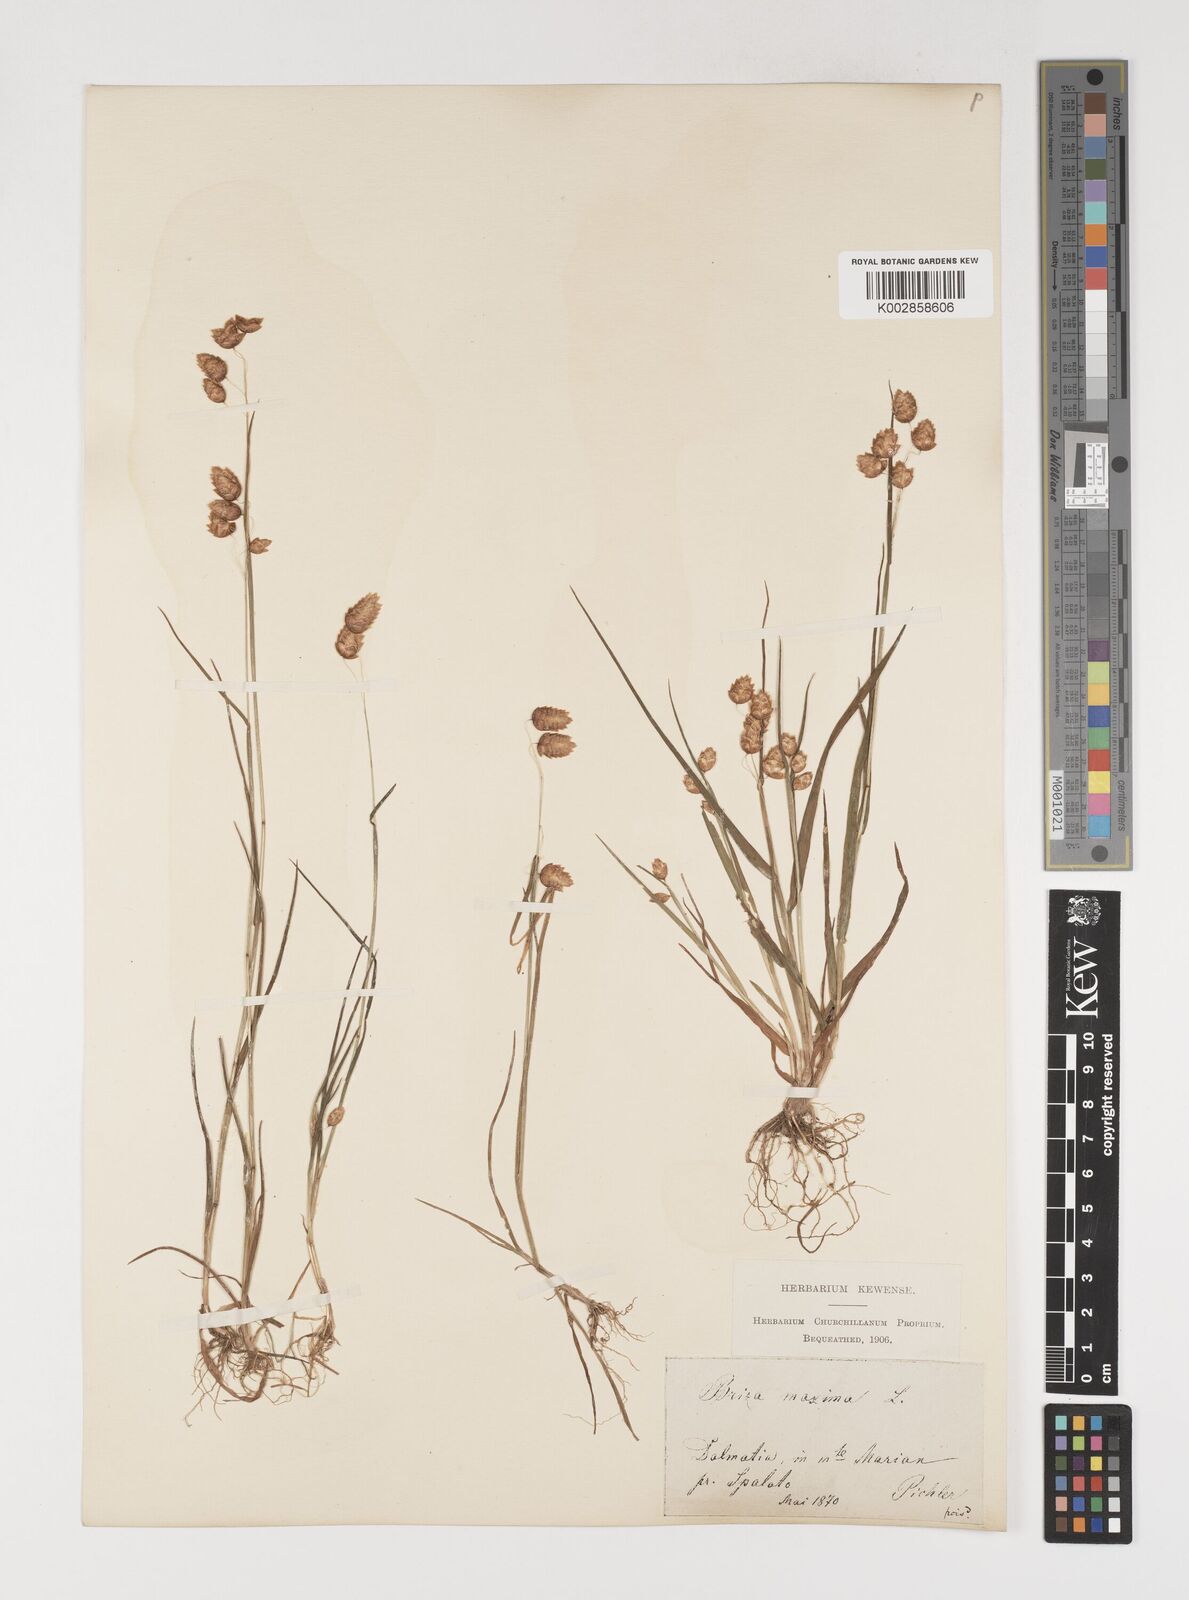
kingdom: Plantae
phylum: Tracheophyta
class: Liliopsida
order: Poales
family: Poaceae
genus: Briza
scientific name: Briza maxima
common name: Big quakinggrass
